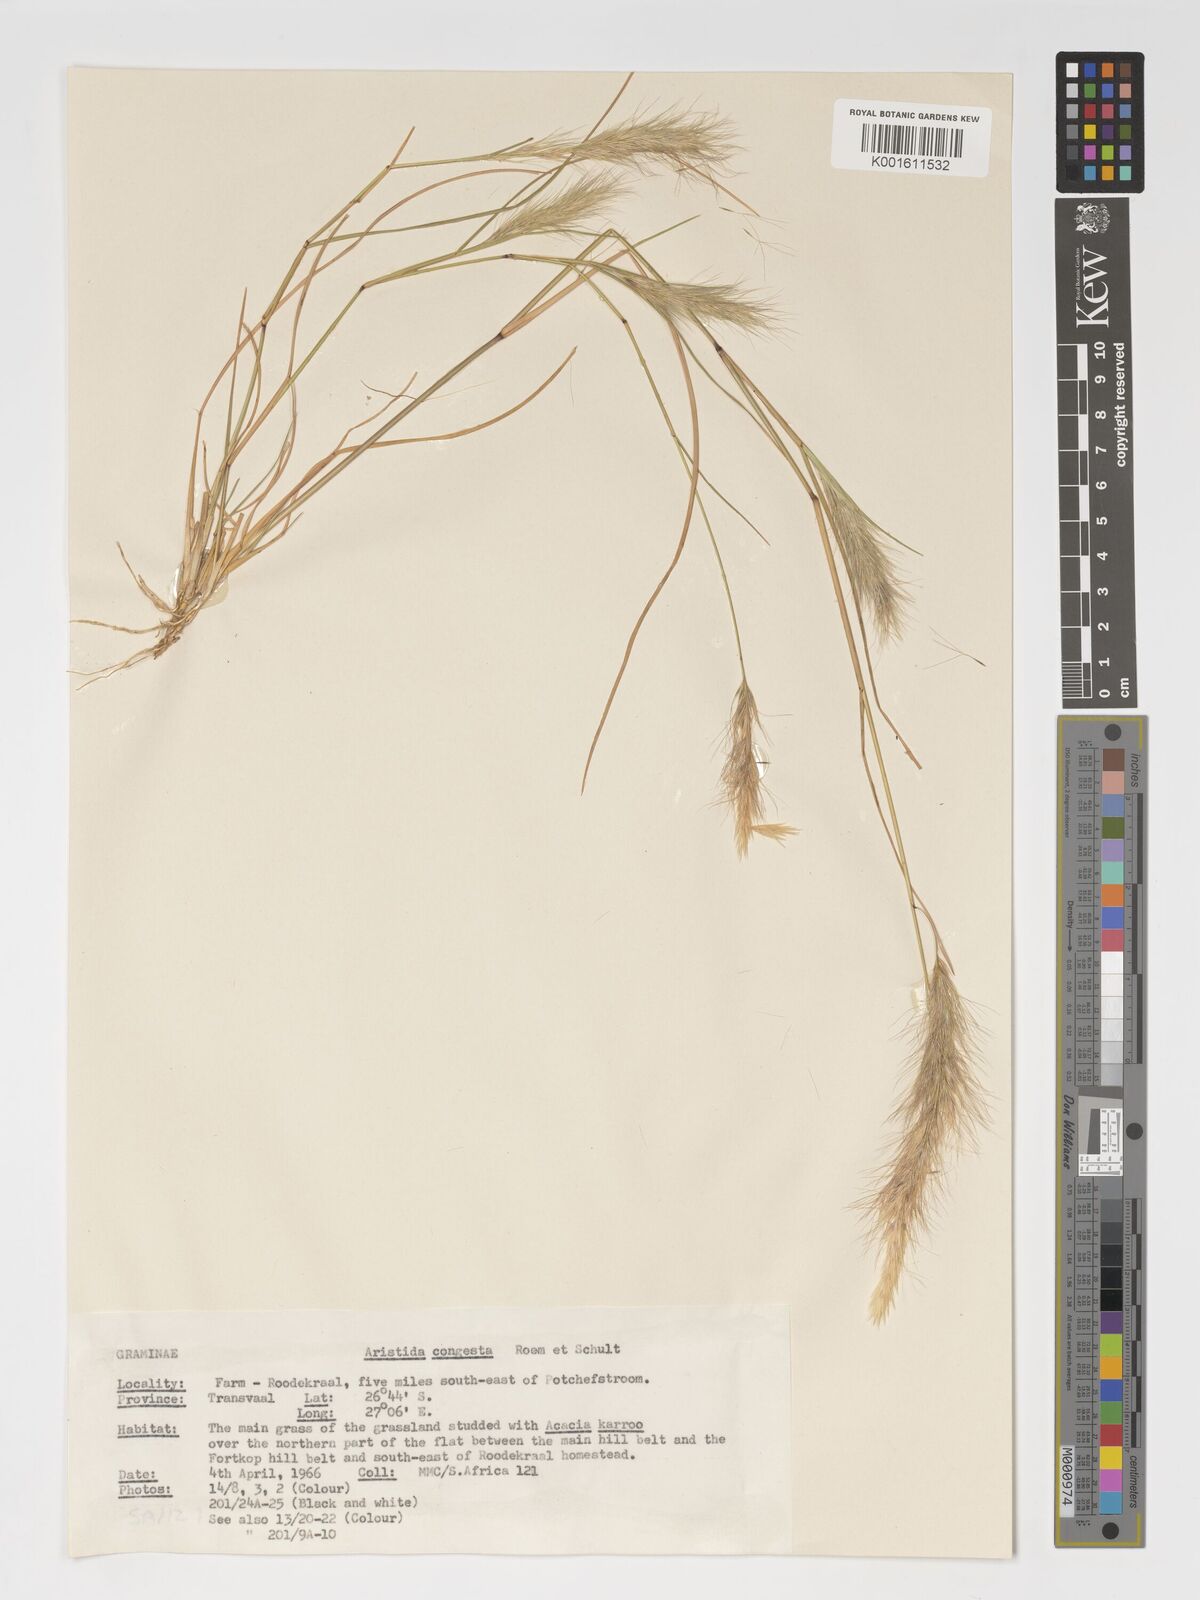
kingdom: Plantae
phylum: Tracheophyta
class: Liliopsida
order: Poales
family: Poaceae
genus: Aristida
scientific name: Aristida congesta
